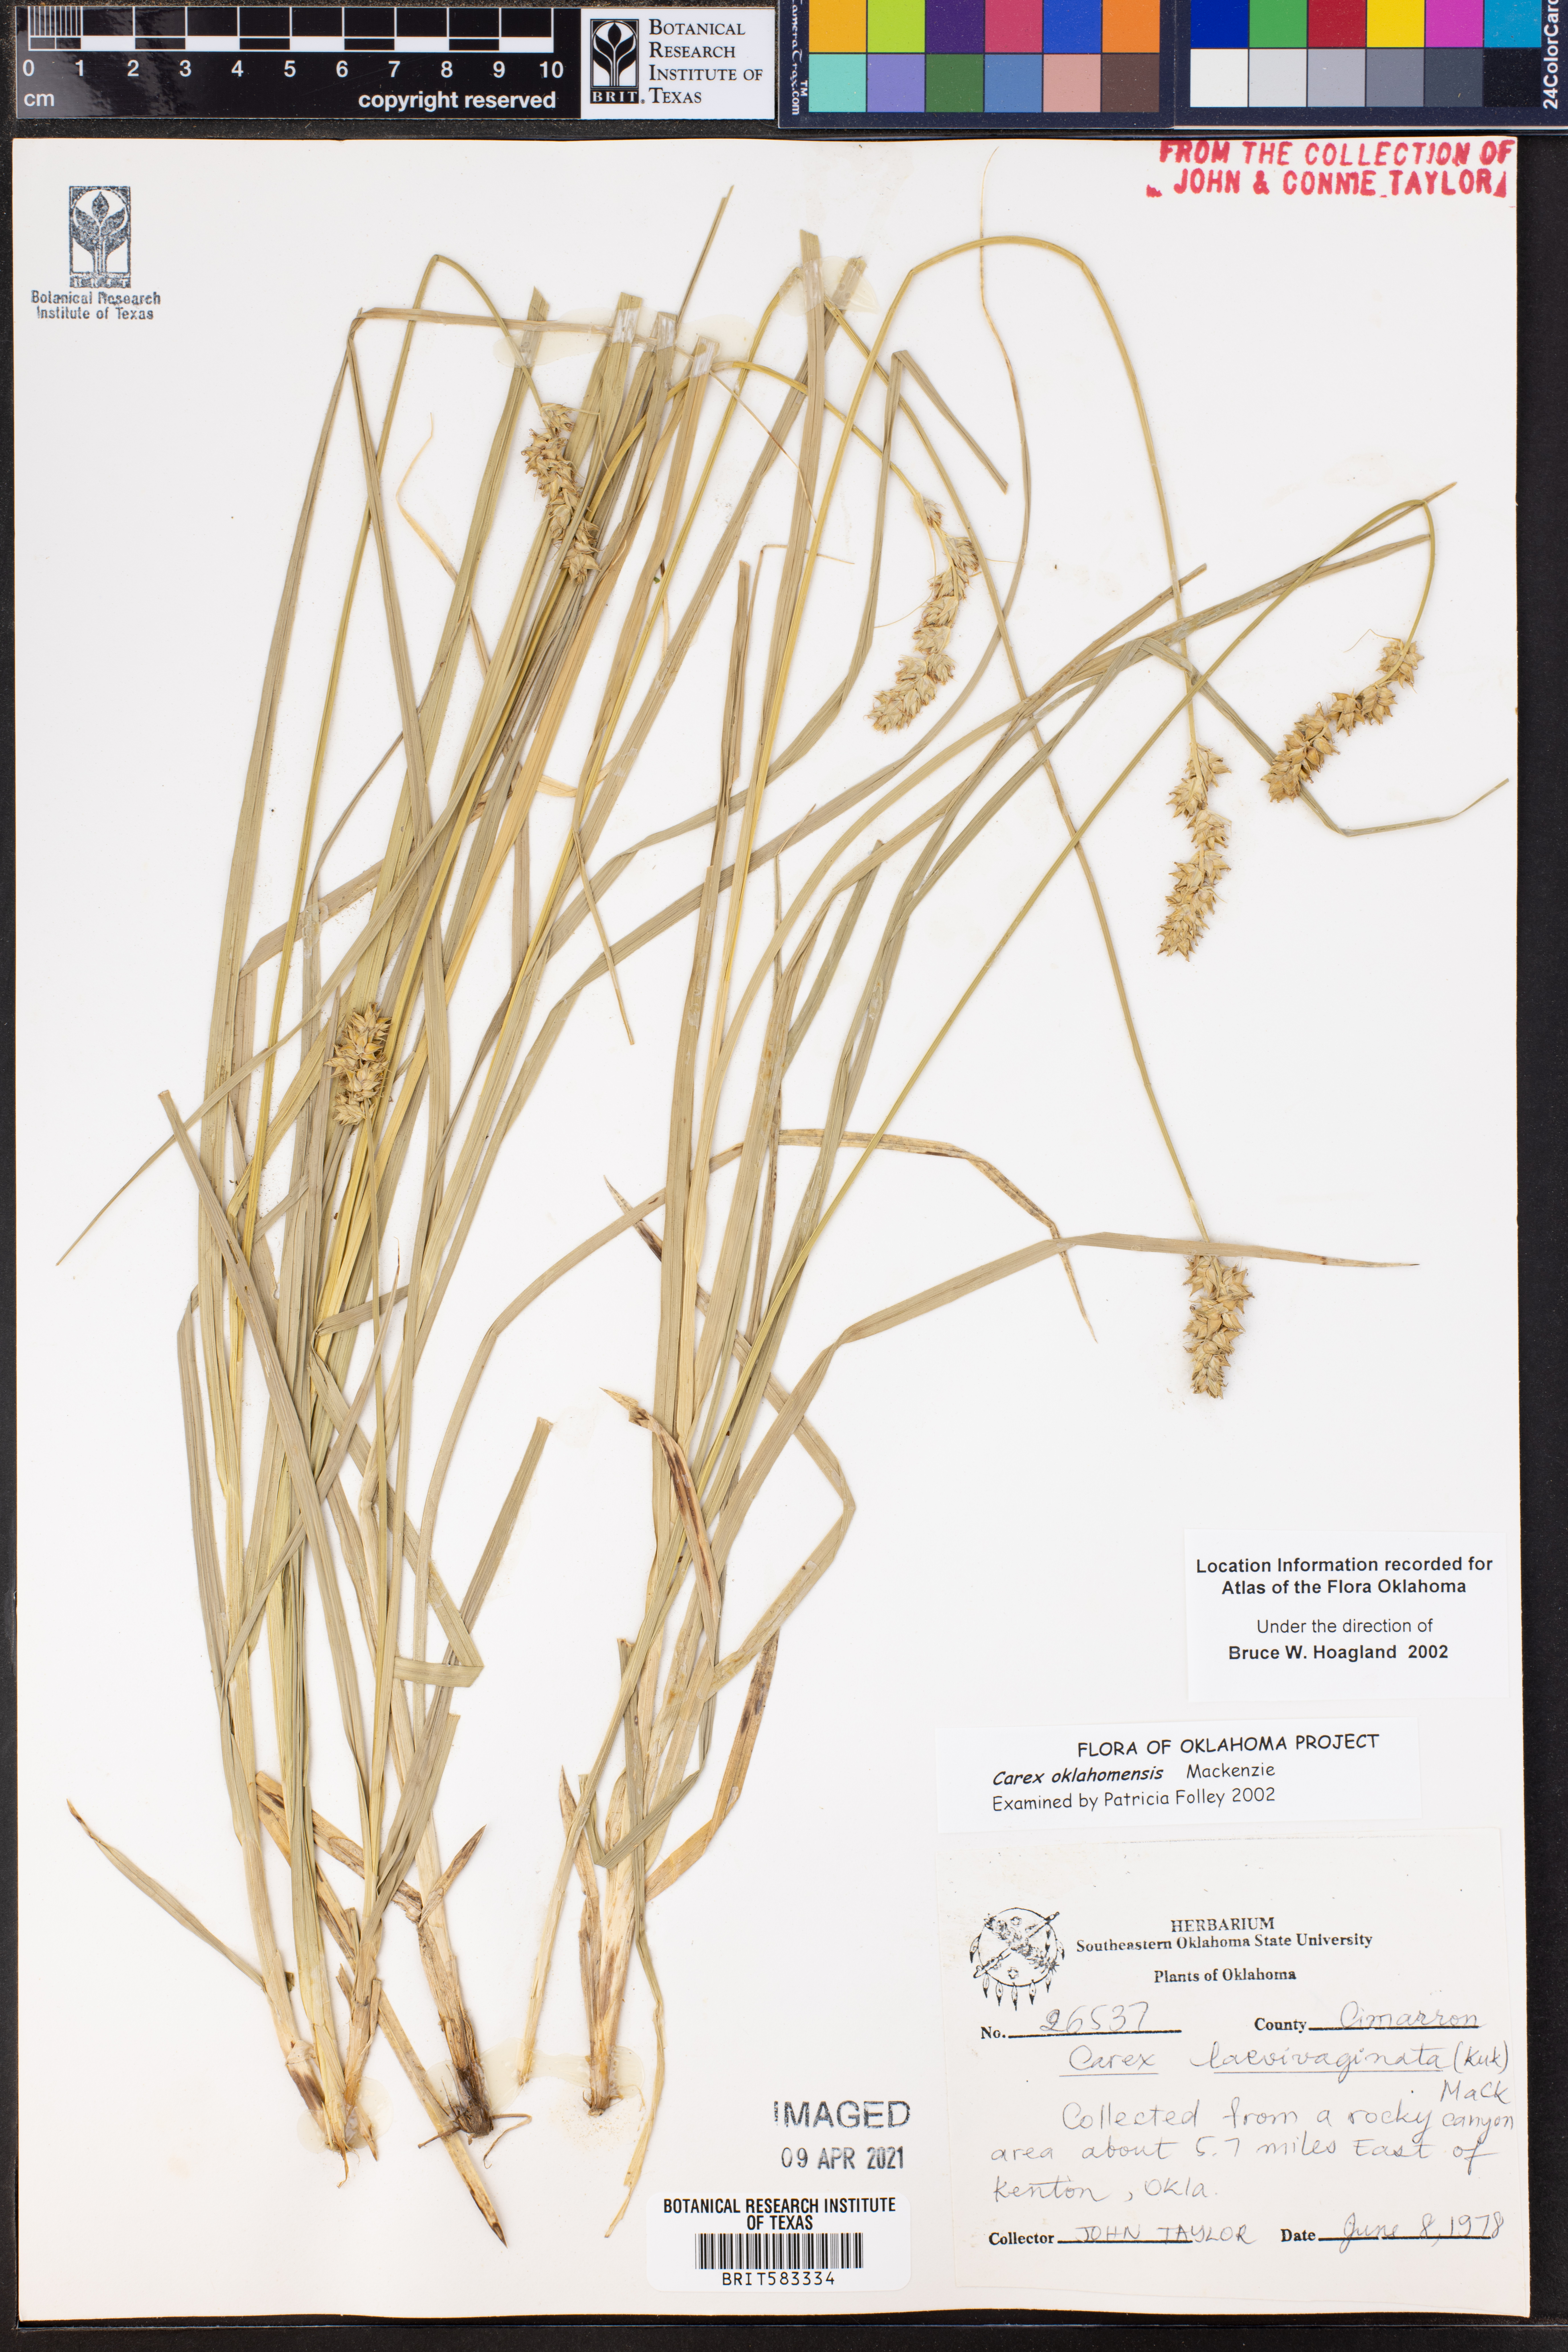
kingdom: Plantae
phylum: Tracheophyta
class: Liliopsida
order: Poales
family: Cyperaceae
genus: Carex
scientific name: Carex oklahomensis
